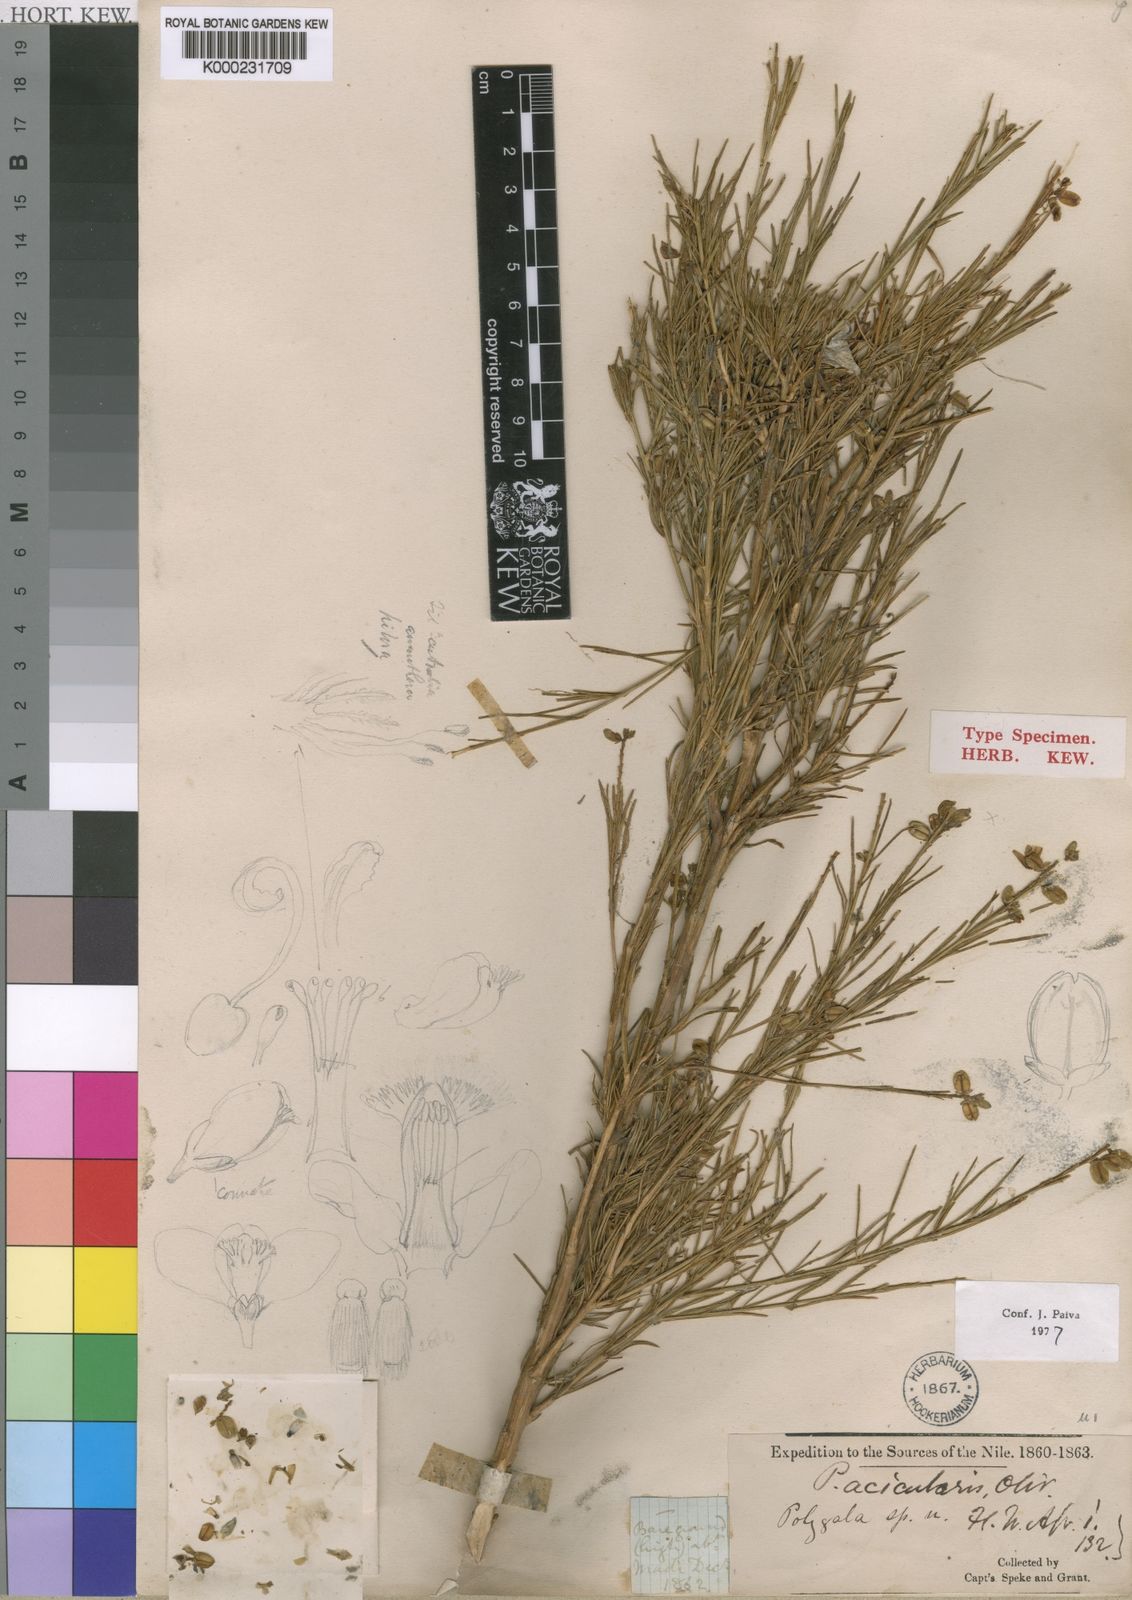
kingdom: Plantae
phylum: Tracheophyta
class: Magnoliopsida
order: Fabales
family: Polygalaceae
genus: Polygala
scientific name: Polygala acicularis
